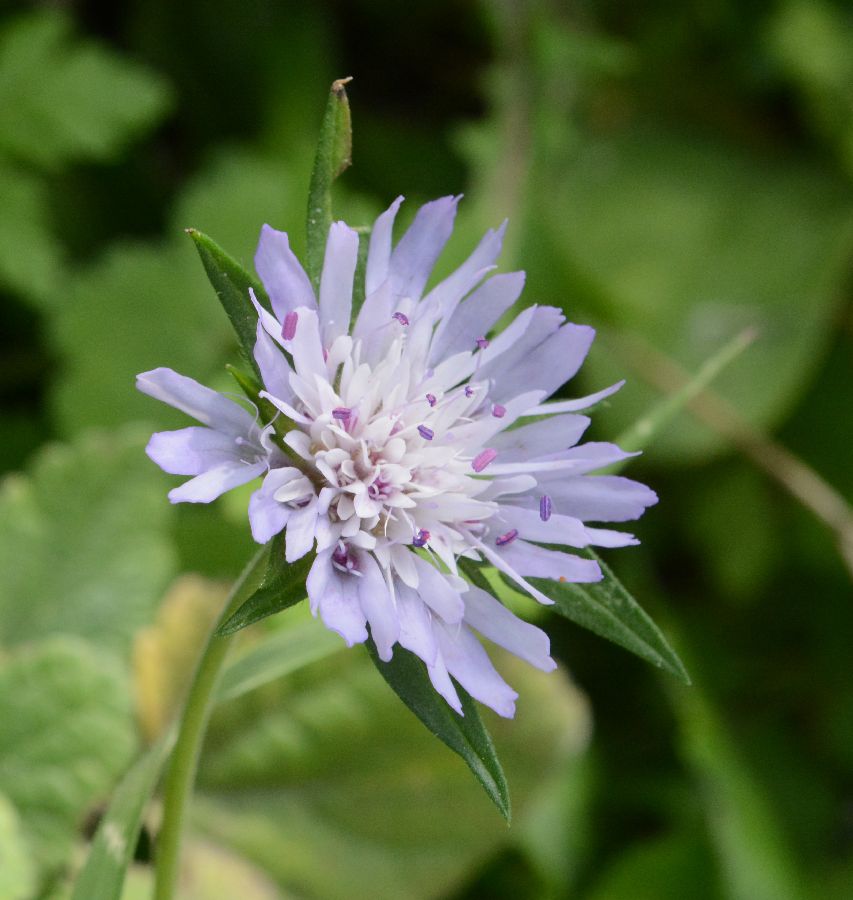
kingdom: Plantae
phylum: Tracheophyta
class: Magnoliopsida
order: Dipsacales
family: Caprifoliaceae
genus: Knautia
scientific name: Knautia integrifolia
